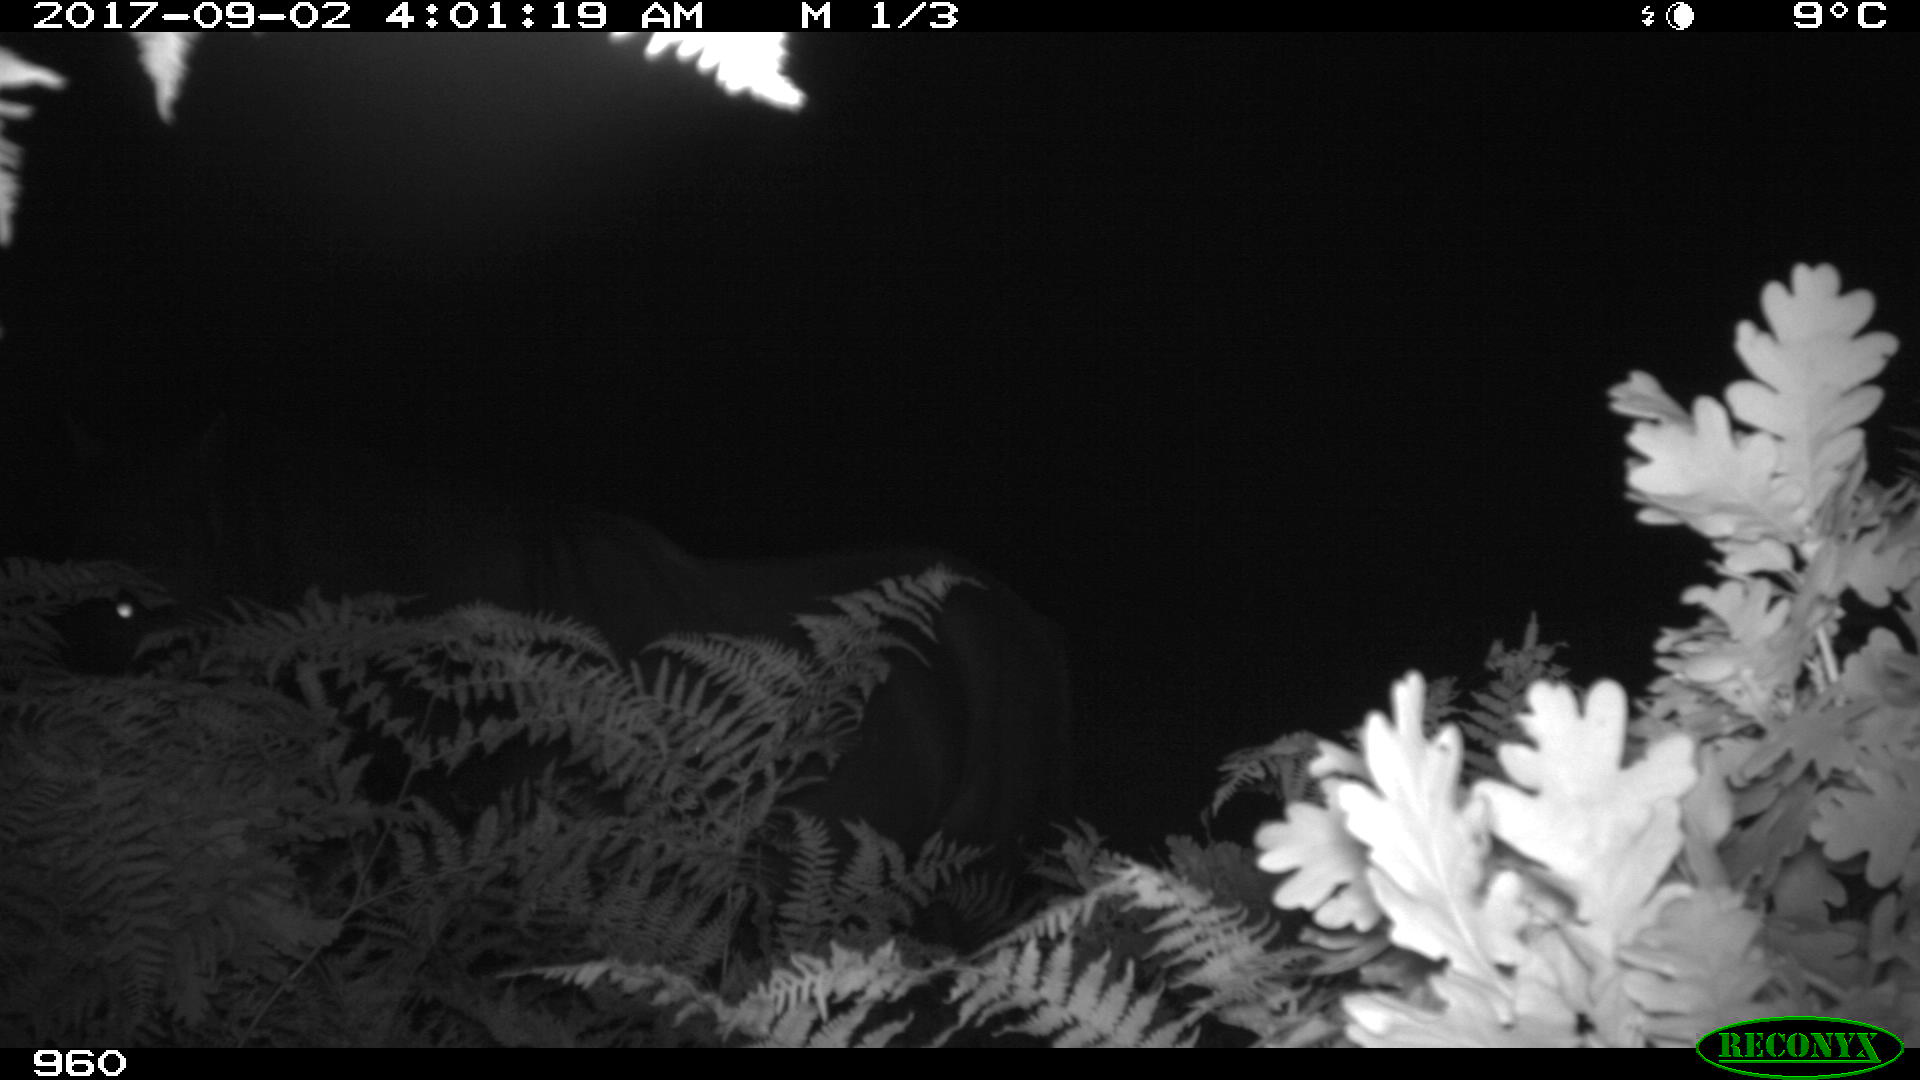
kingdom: Animalia
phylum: Chordata
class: Mammalia
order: Perissodactyla
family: Equidae
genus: Equus
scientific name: Equus caballus
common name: Horse
